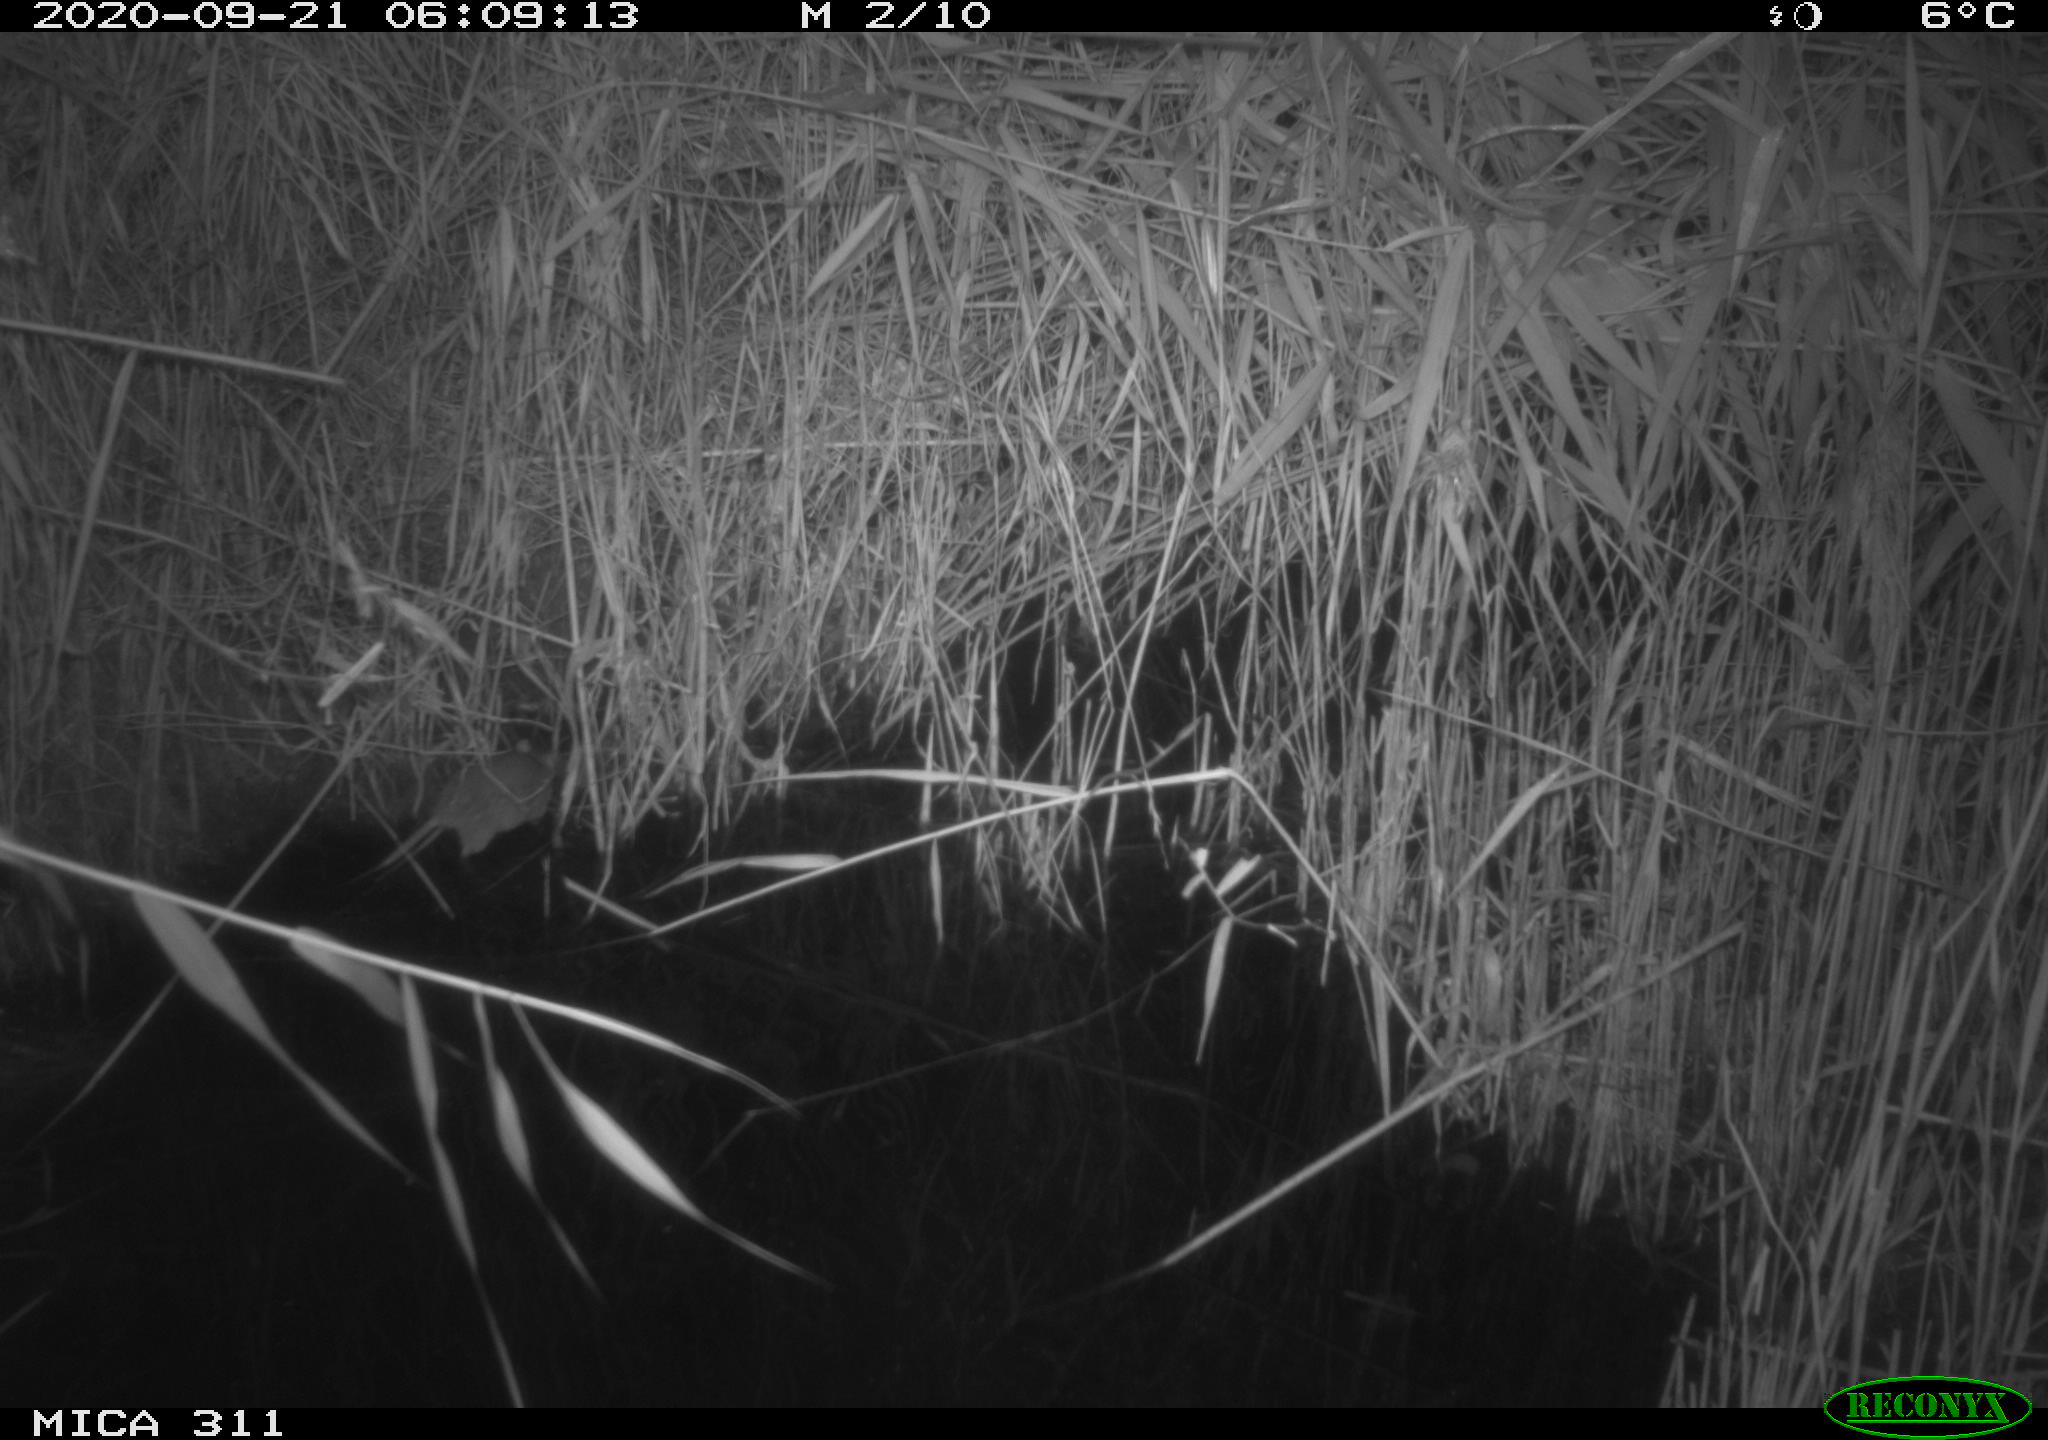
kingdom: Animalia
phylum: Chordata
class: Mammalia
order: Rodentia
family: Muridae
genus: Rattus
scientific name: Rattus norvegicus
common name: Brown rat
